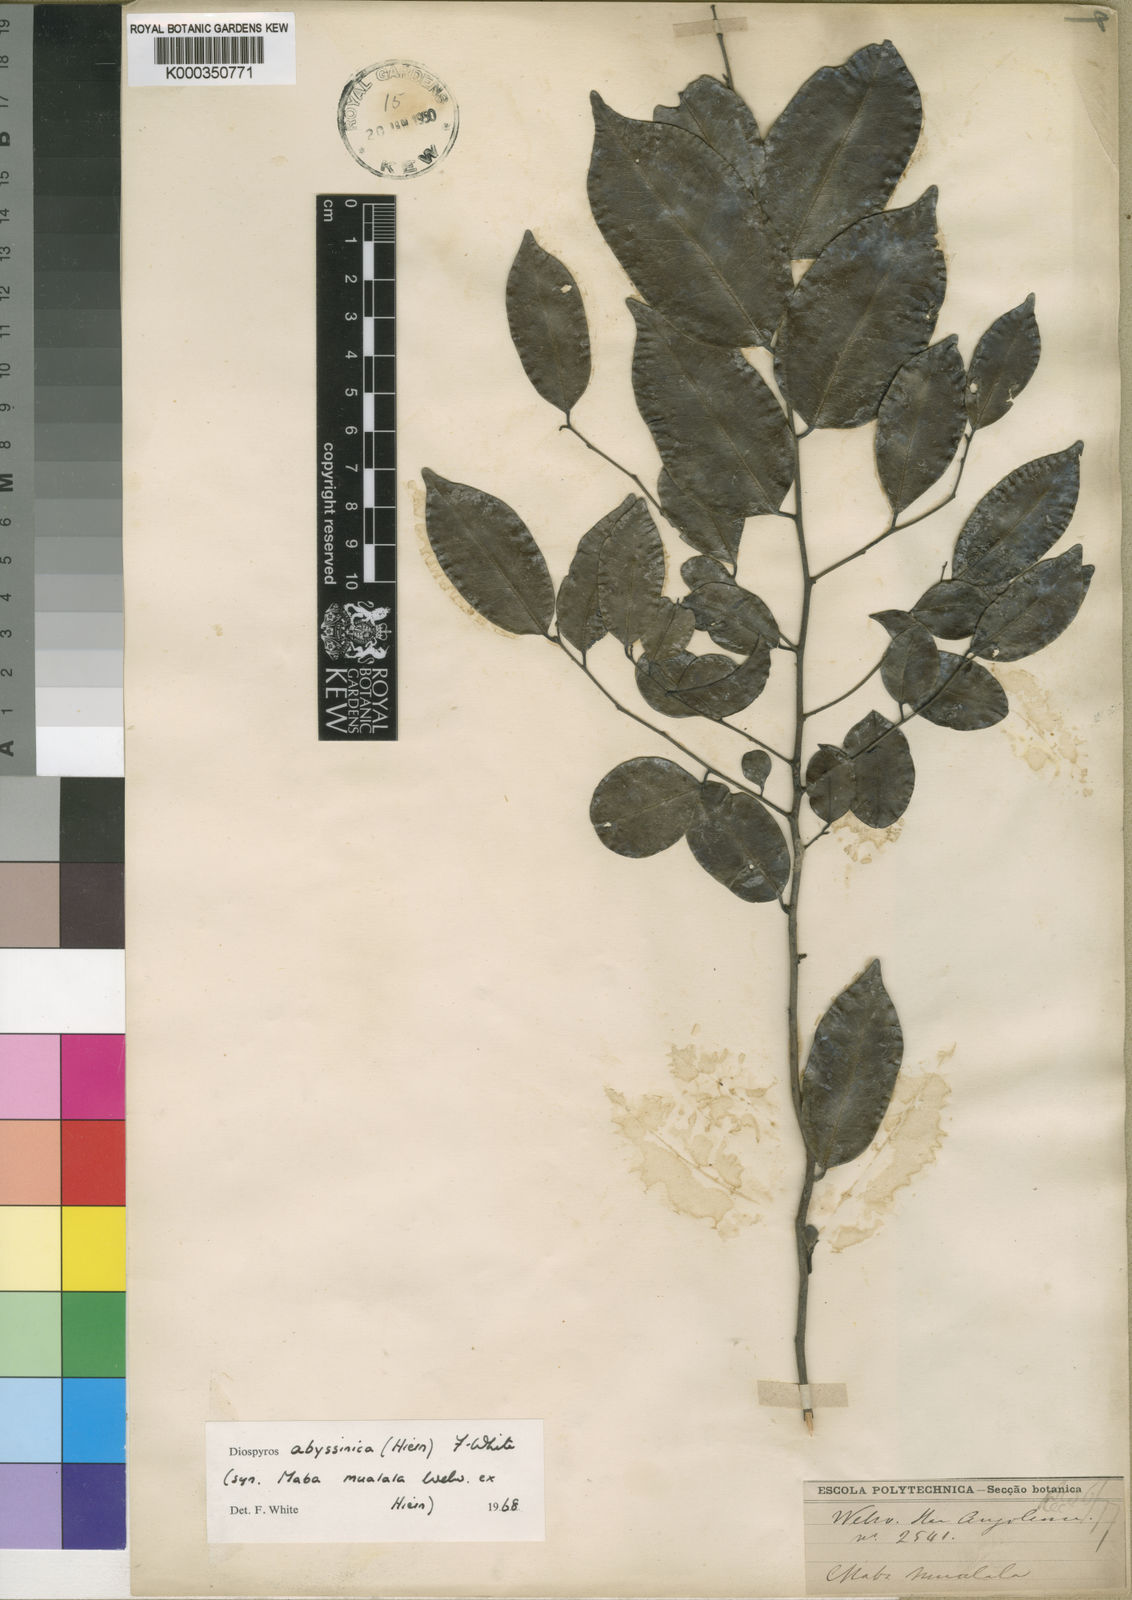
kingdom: Plantae
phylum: Tracheophyta
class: Magnoliopsida
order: Ericales
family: Ebenaceae
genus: Diospyros
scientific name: Diospyros abyssinica
